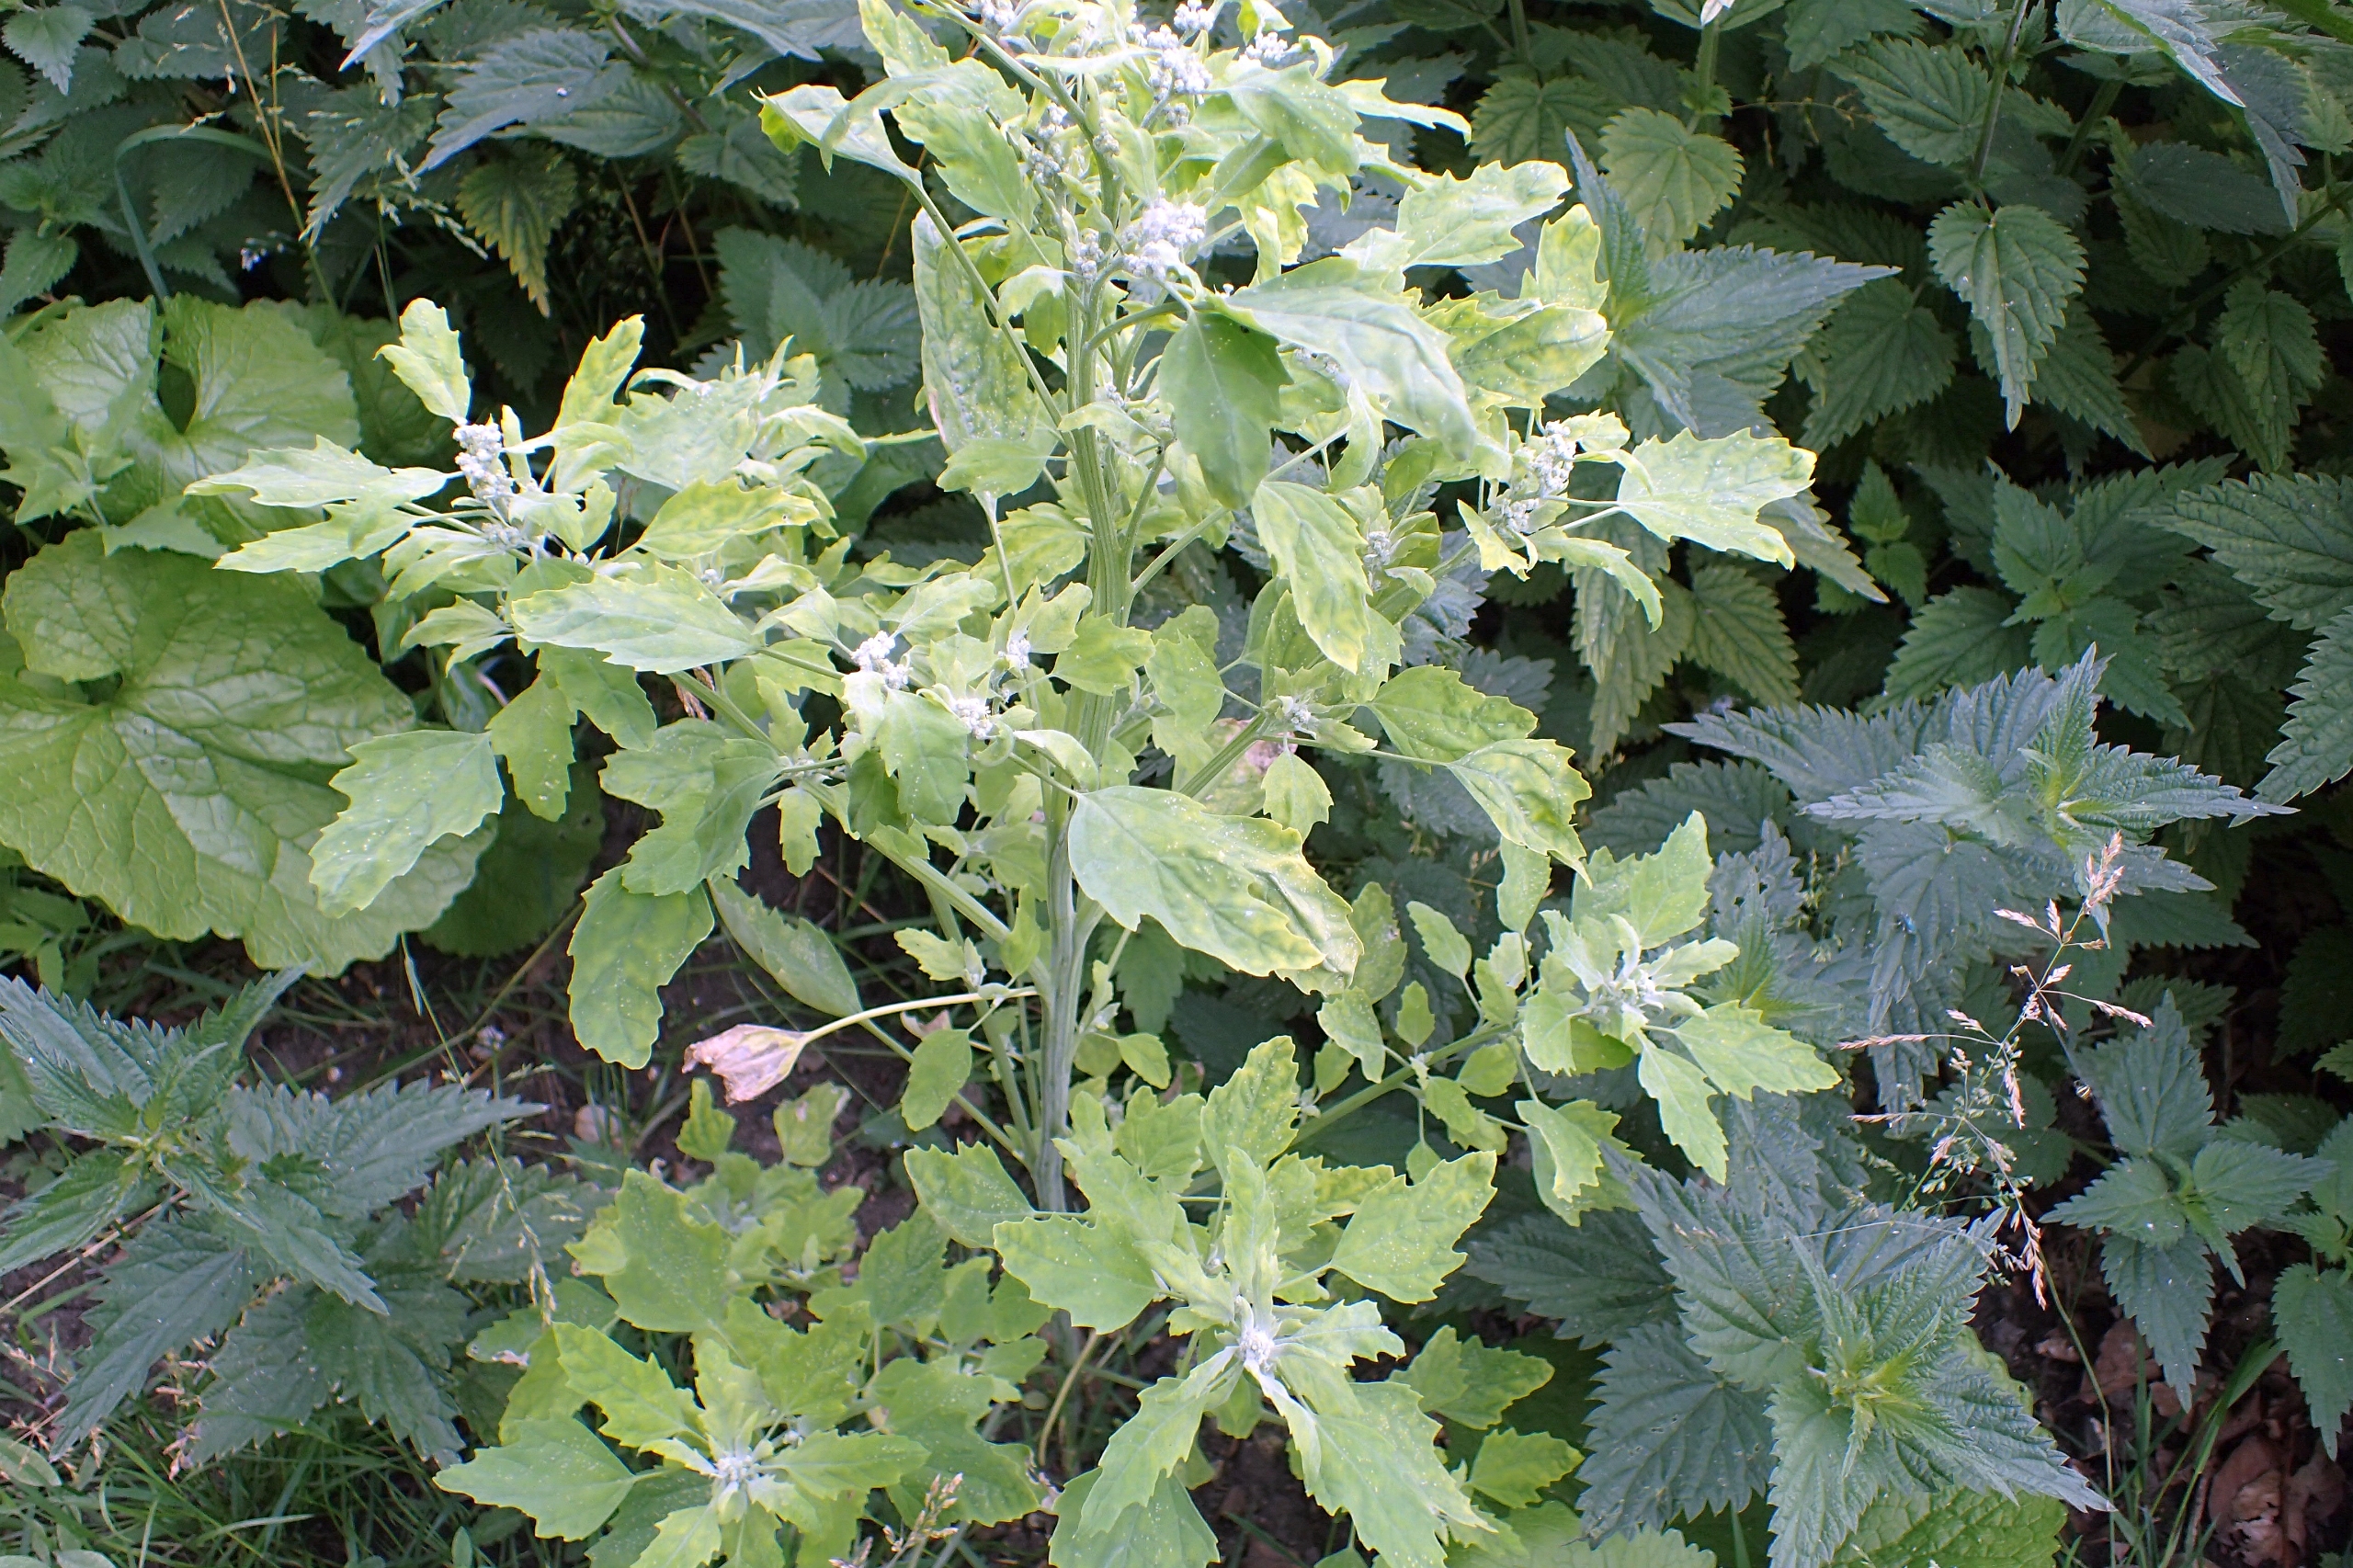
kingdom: Plantae
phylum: Tracheophyta
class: Magnoliopsida
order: Caryophyllales
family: Amaranthaceae
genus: Chenopodium
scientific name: Chenopodium album
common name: Hvidmelet gåsefod
